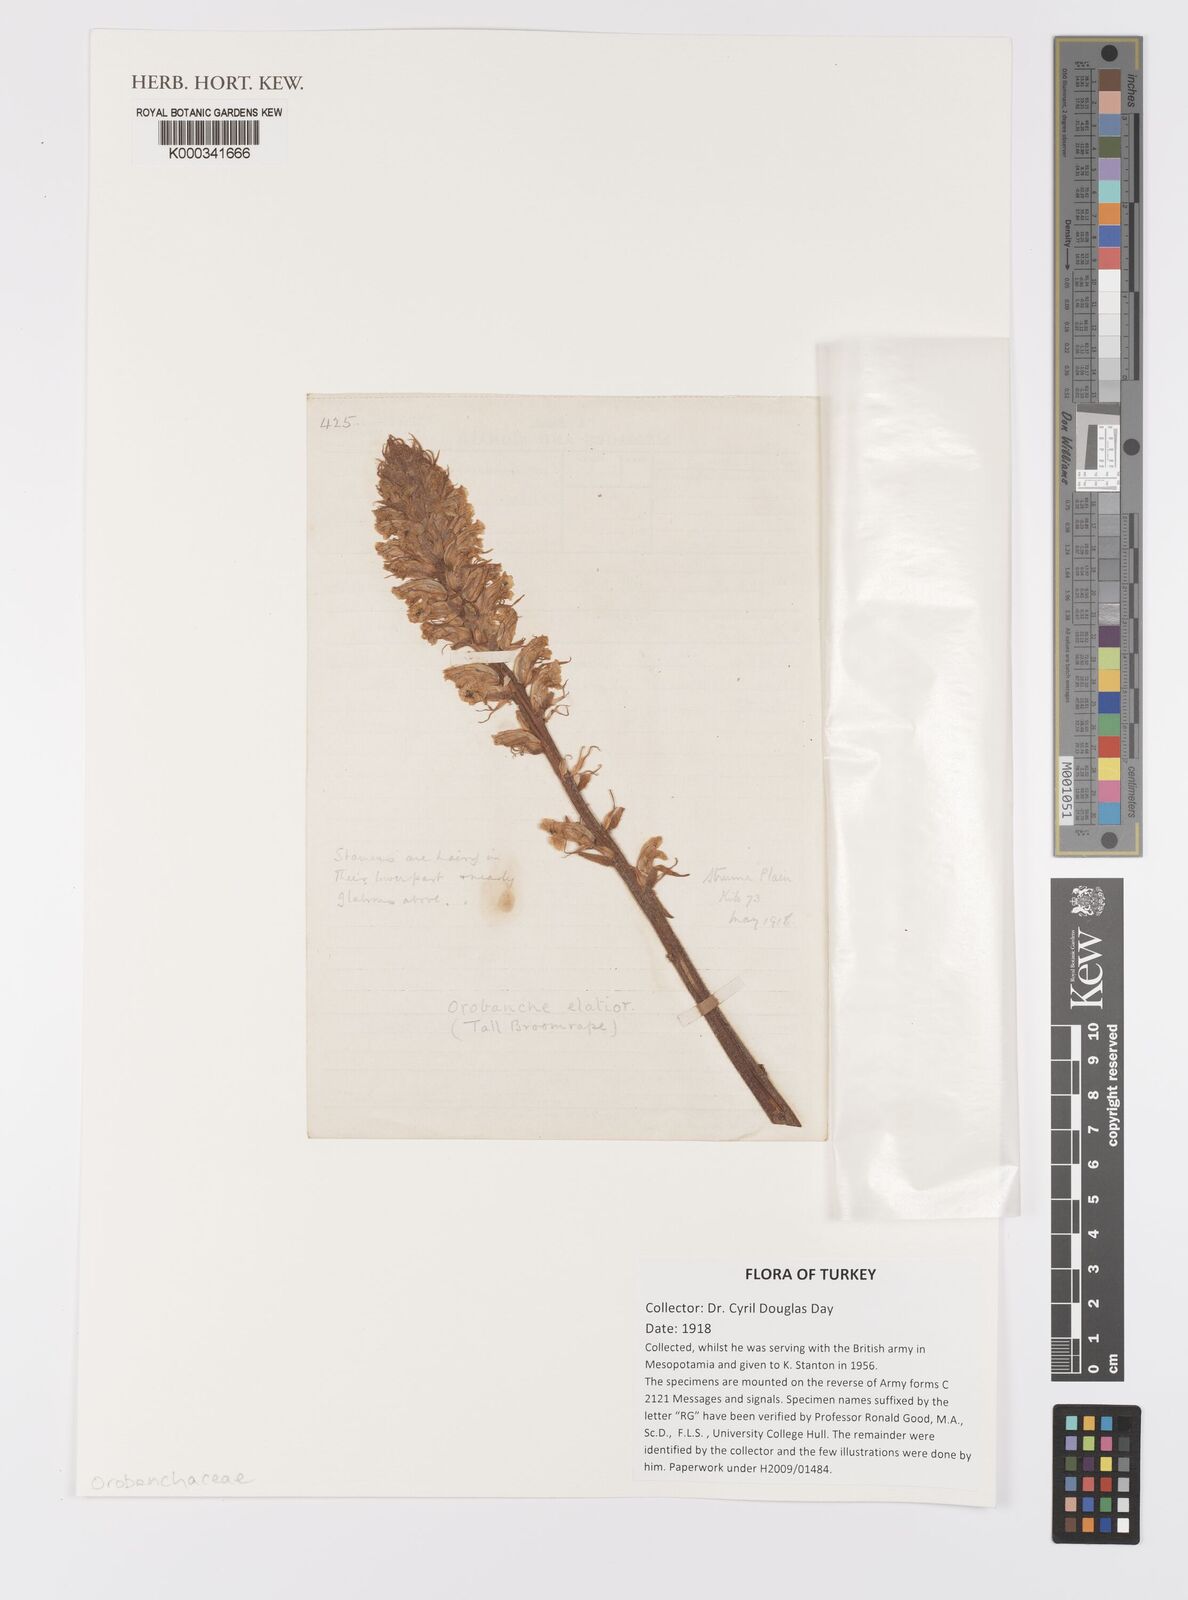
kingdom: Plantae
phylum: Tracheophyta
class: Magnoliopsida
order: Lamiales
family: Orobanchaceae
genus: Orobanche
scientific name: Orobanche elatior
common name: Knapweed broomrape
